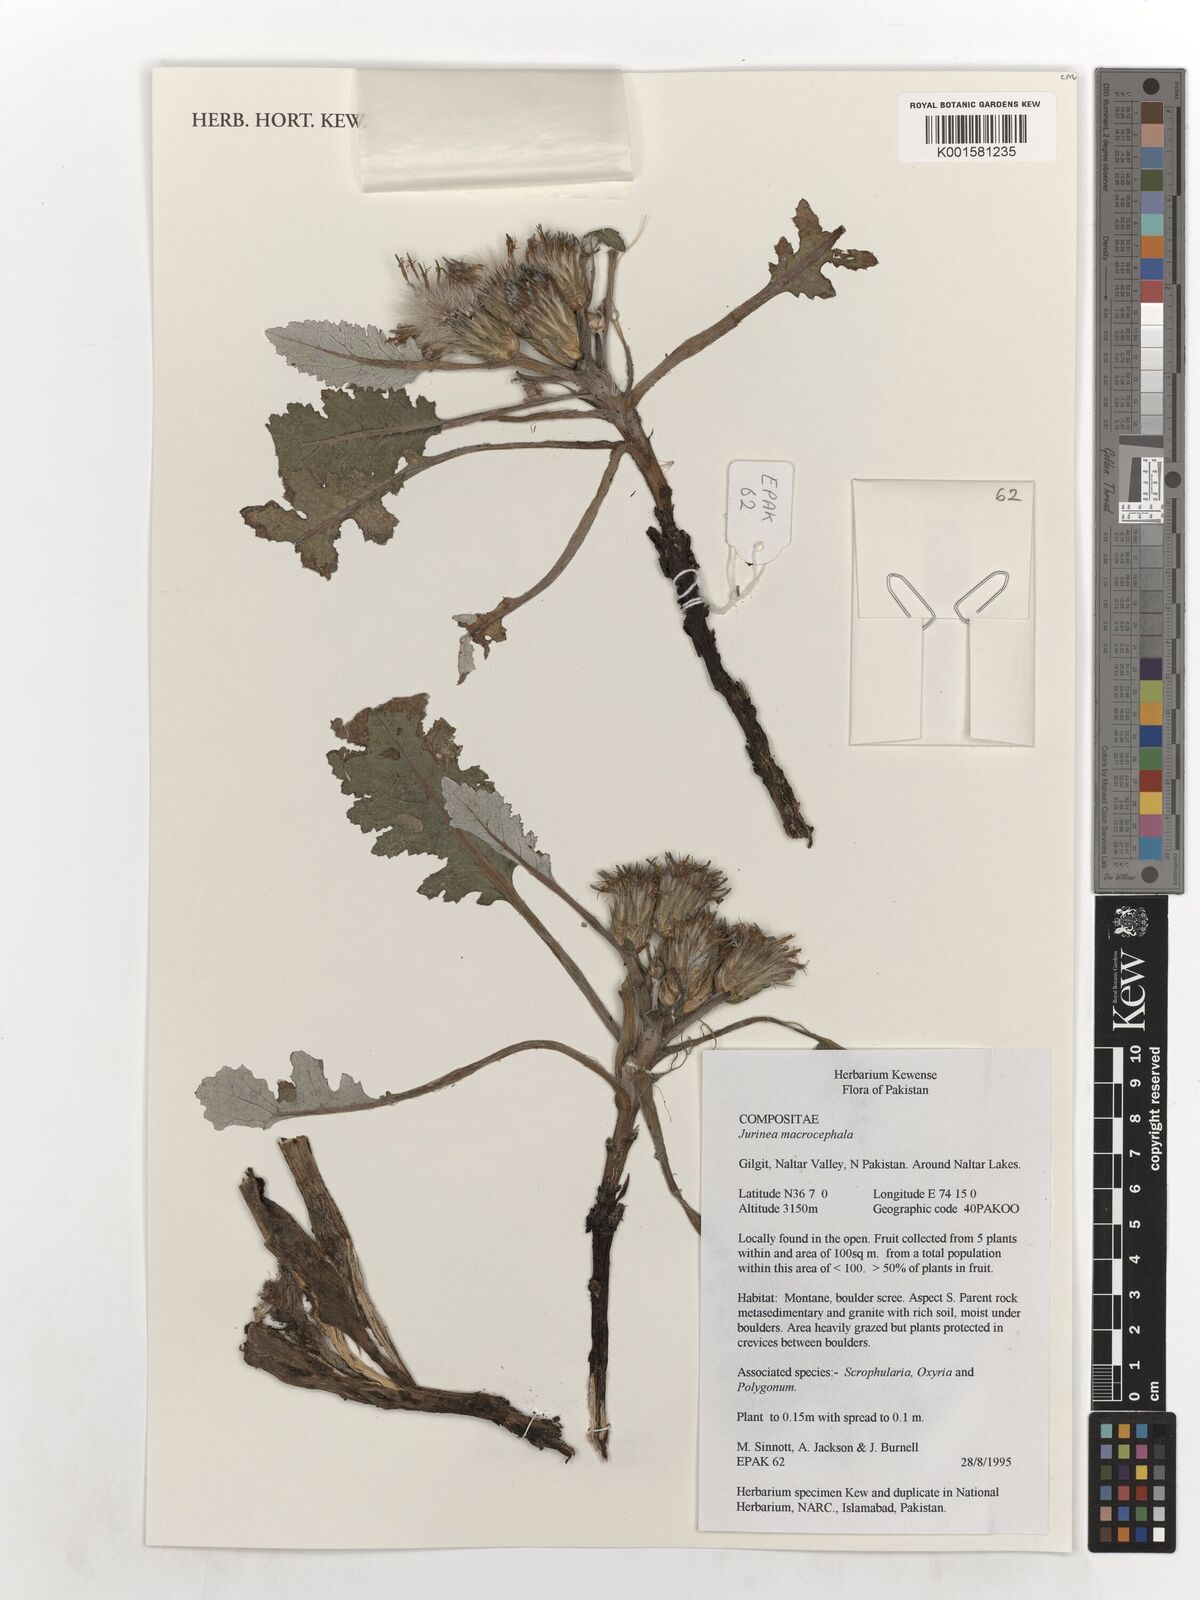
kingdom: Plantae
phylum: Tracheophyta
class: Magnoliopsida
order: Asterales
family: Asteraceae
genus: Dolomiaea
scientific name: Dolomiaea macrocephala
